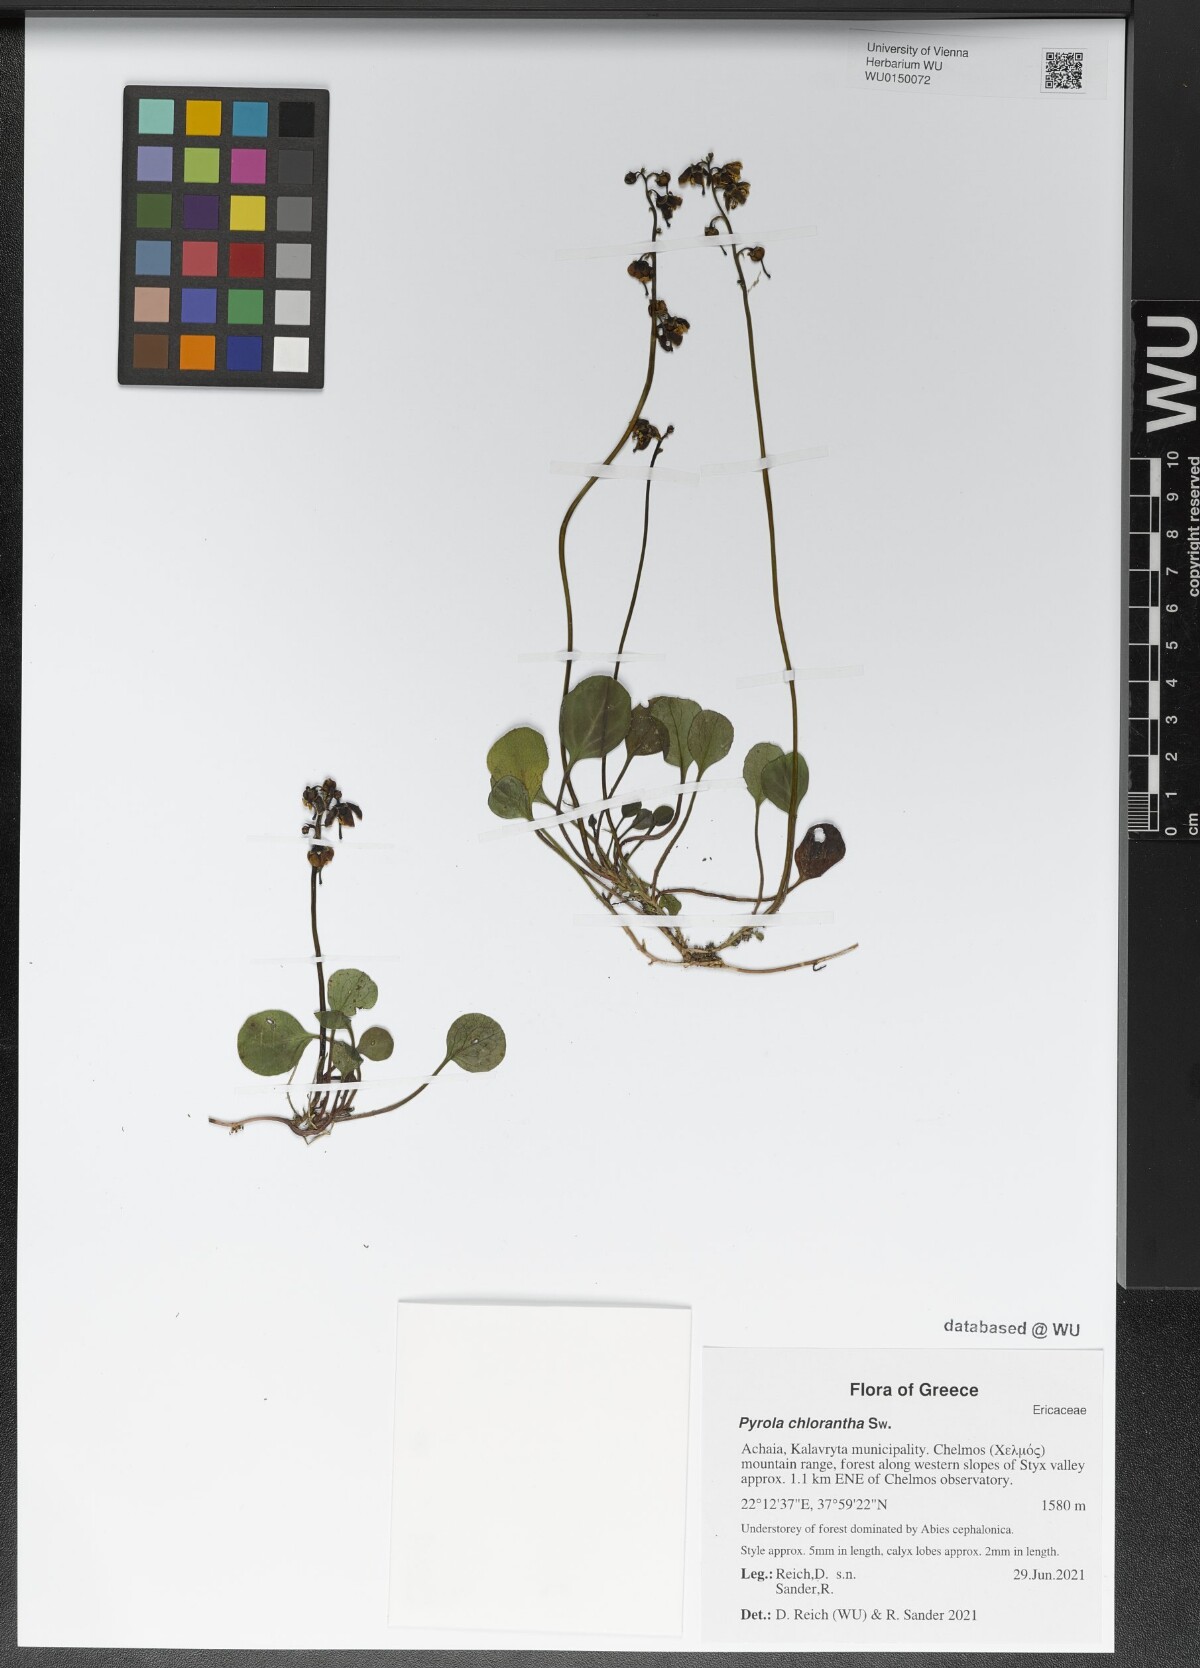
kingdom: Plantae
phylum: Tracheophyta
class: Magnoliopsida
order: Ericales
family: Ericaceae
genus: Pyrola
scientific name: Pyrola chlorantha
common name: Green wintergreen
